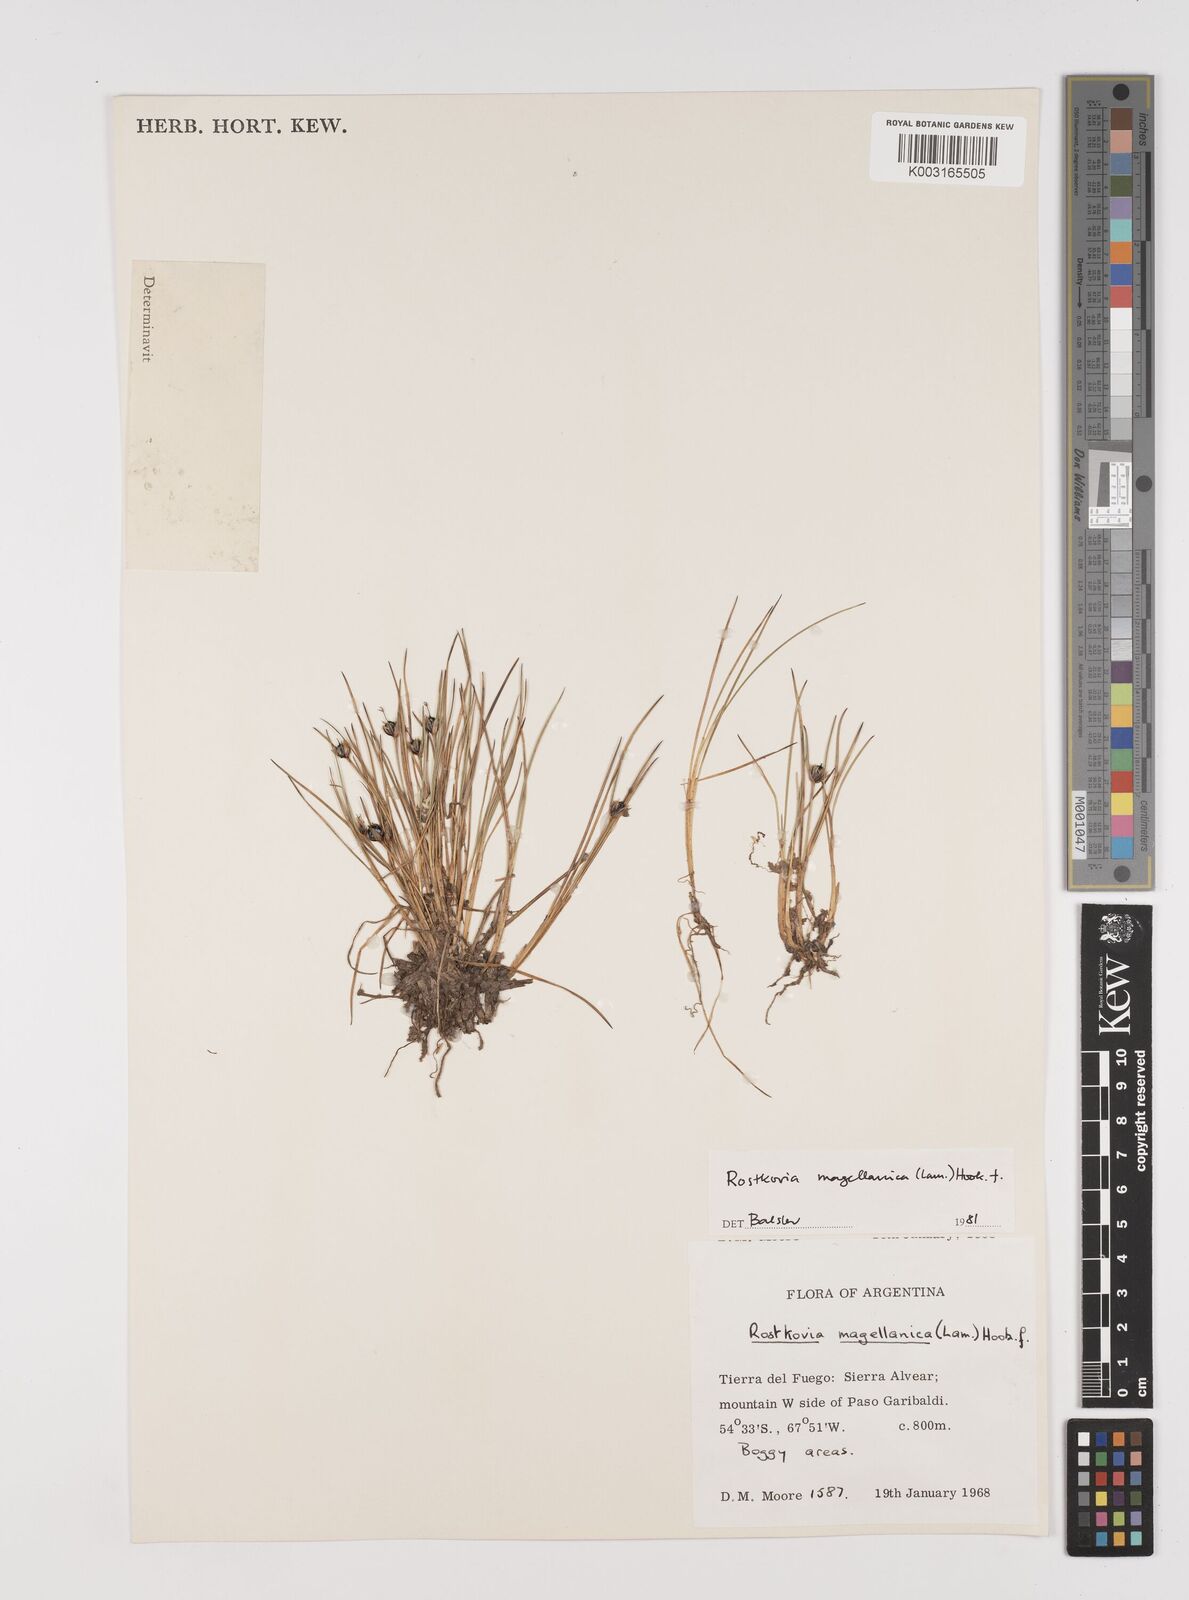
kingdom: Plantae
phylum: Tracheophyta
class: Liliopsida
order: Poales
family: Juncaceae
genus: Rostkovia
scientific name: Rostkovia magellanica
